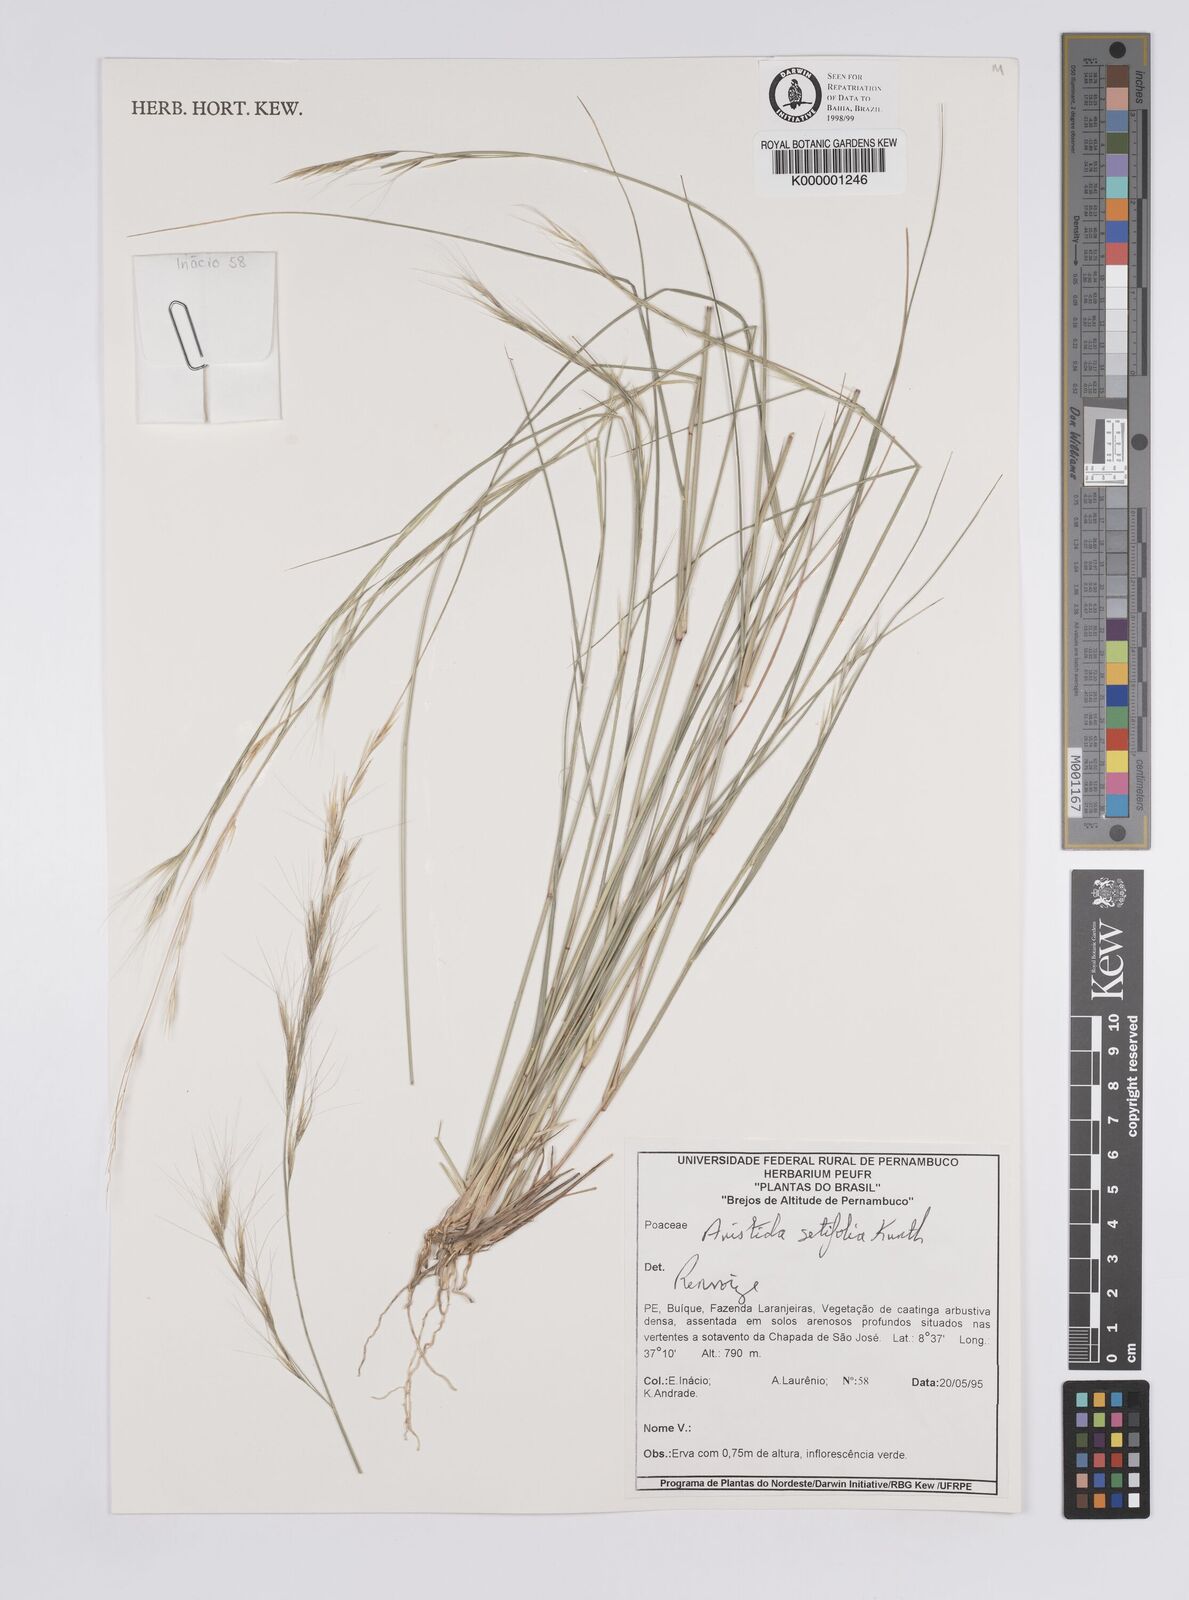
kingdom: Plantae
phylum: Tracheophyta
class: Liliopsida
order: Poales
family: Poaceae
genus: Aristida
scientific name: Aristida setifolia
